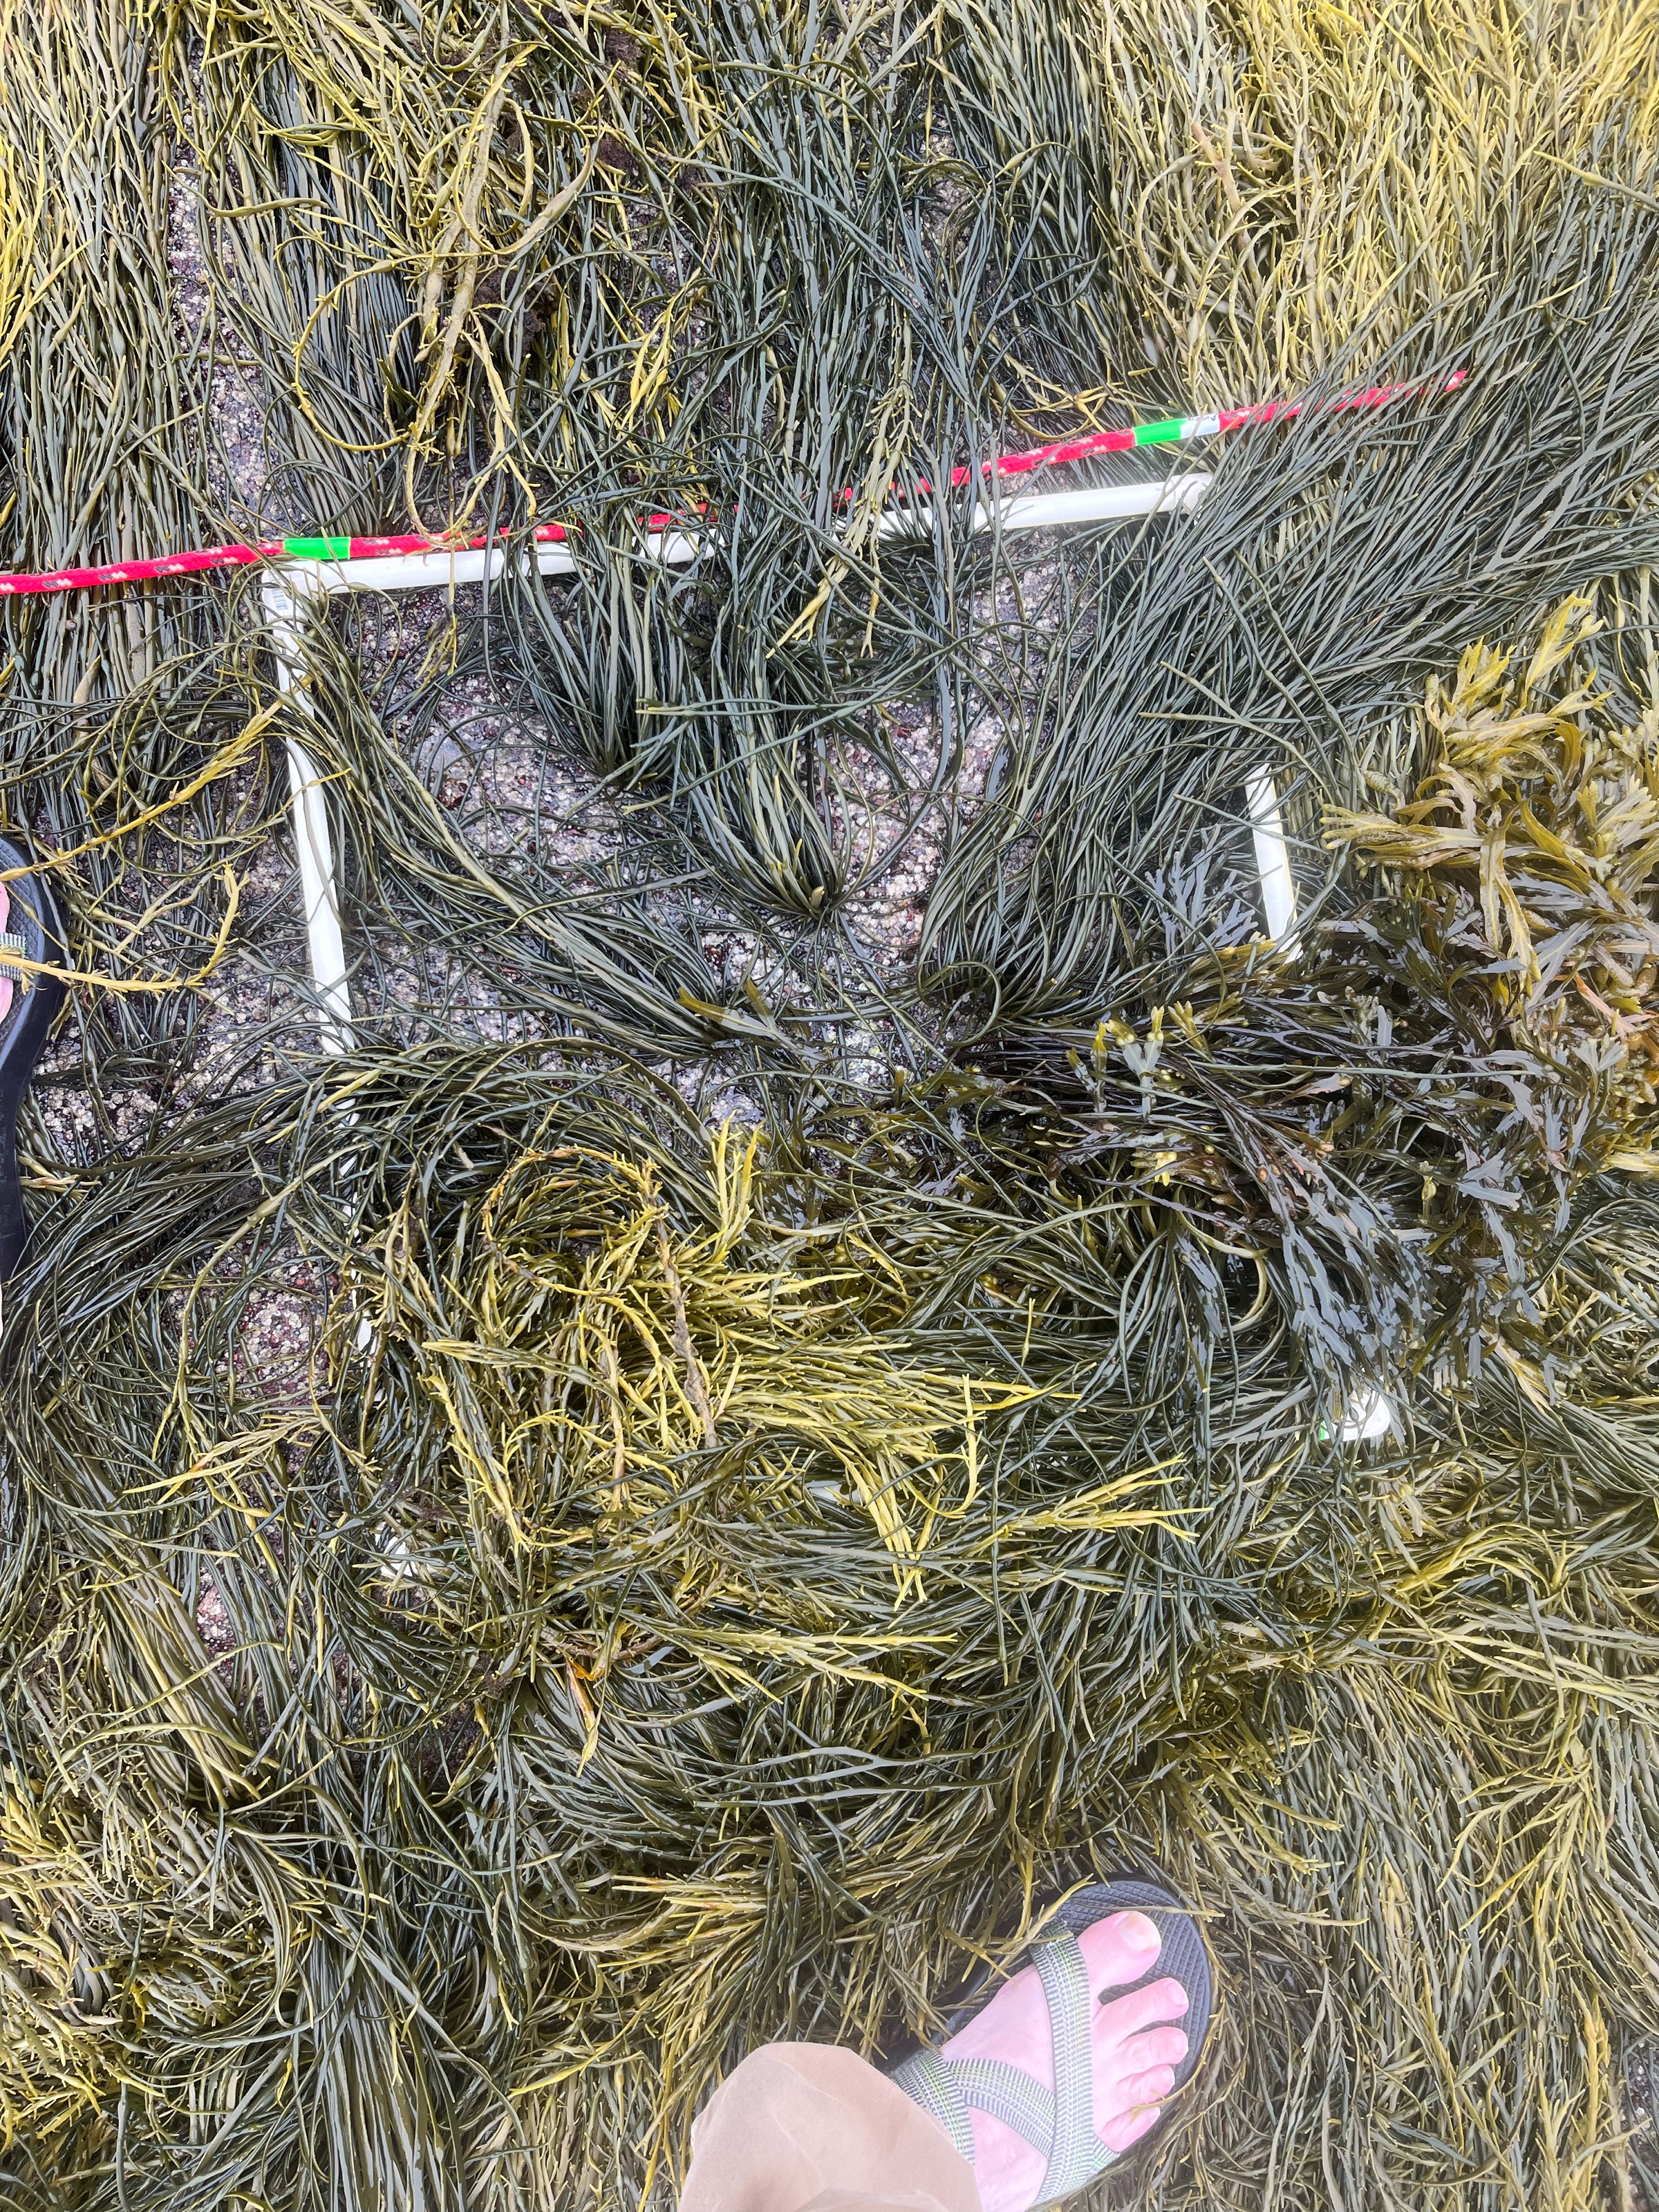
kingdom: Chromista
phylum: Ochrophyta
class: Phaeophyceae
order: Fucales
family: Fucaceae
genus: Ascophyllum
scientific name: Ascophyllum nodosum
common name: Rockweed
